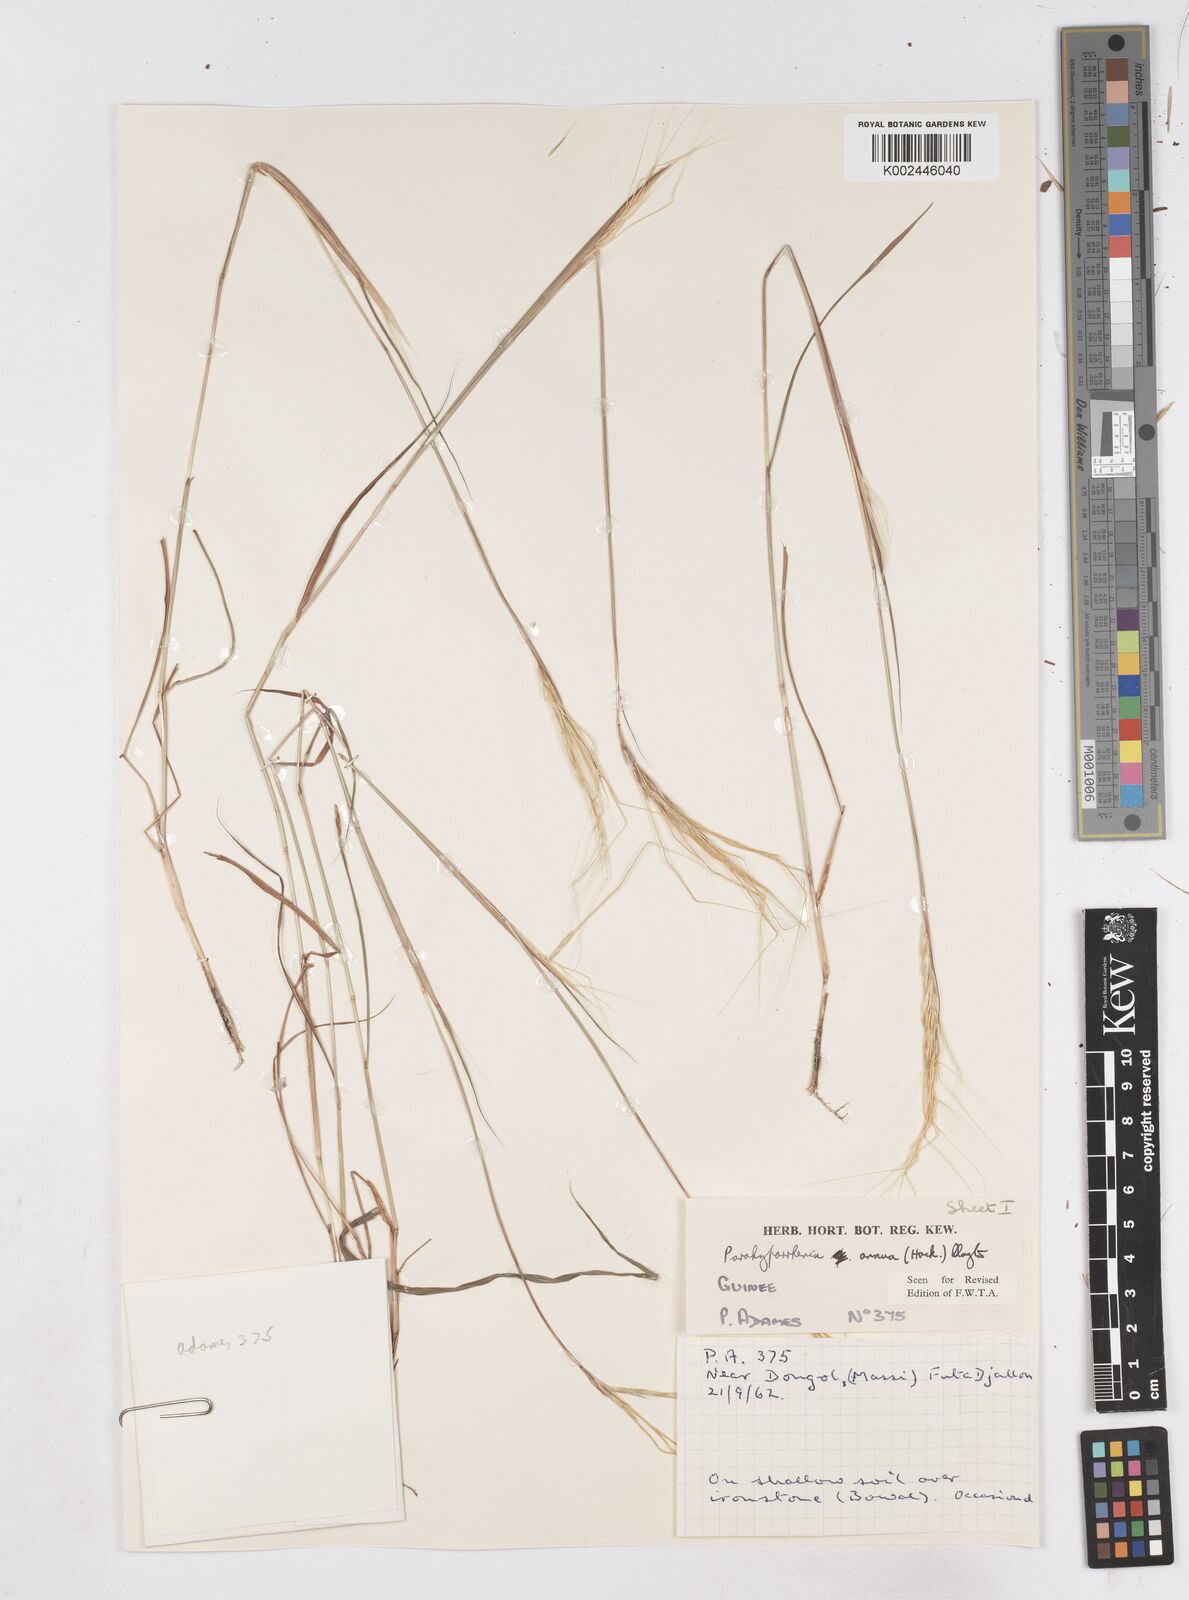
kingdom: Plantae
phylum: Tracheophyta
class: Liliopsida
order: Poales
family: Poaceae
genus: Parahyparrhenia
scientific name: Parahyparrhenia annua
